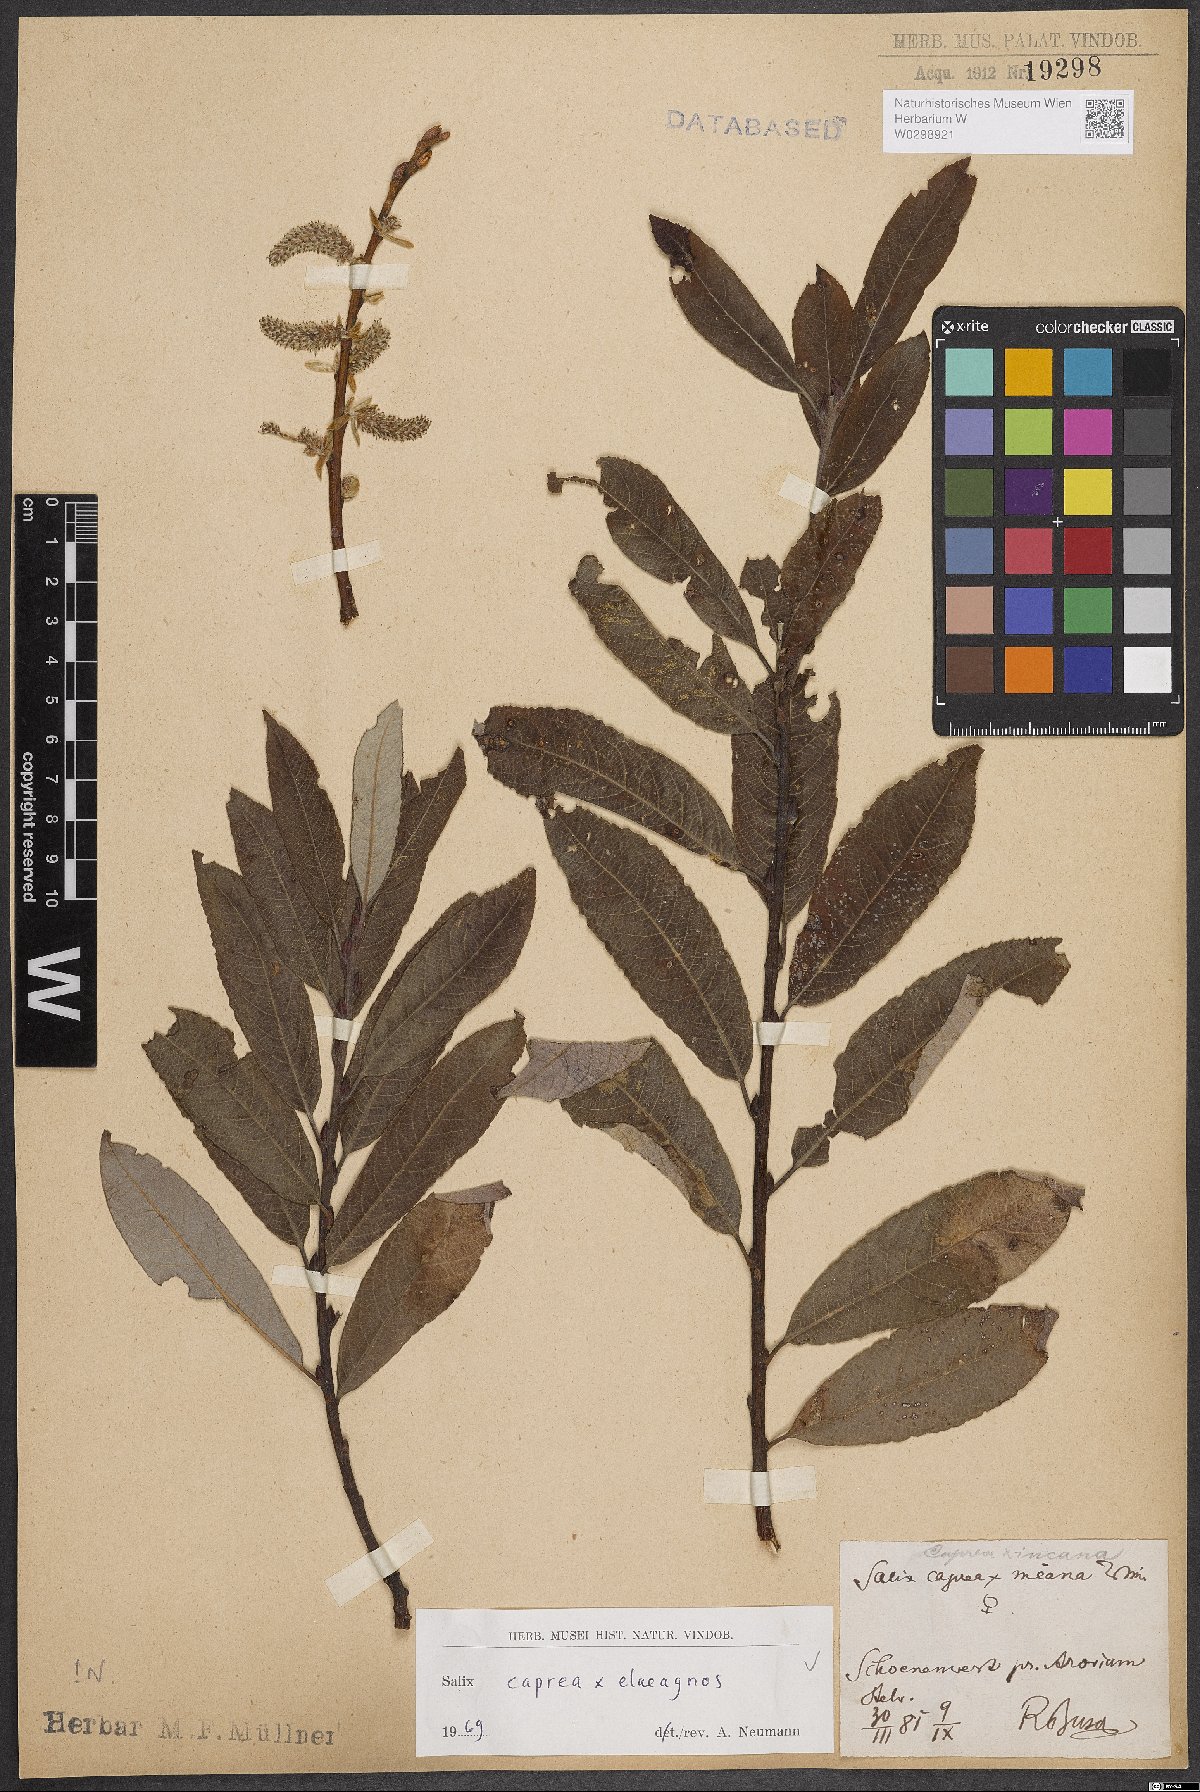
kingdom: Plantae
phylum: Tracheophyta
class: Magnoliopsida
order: Malpighiales
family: Salicaceae
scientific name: Salicaceae
